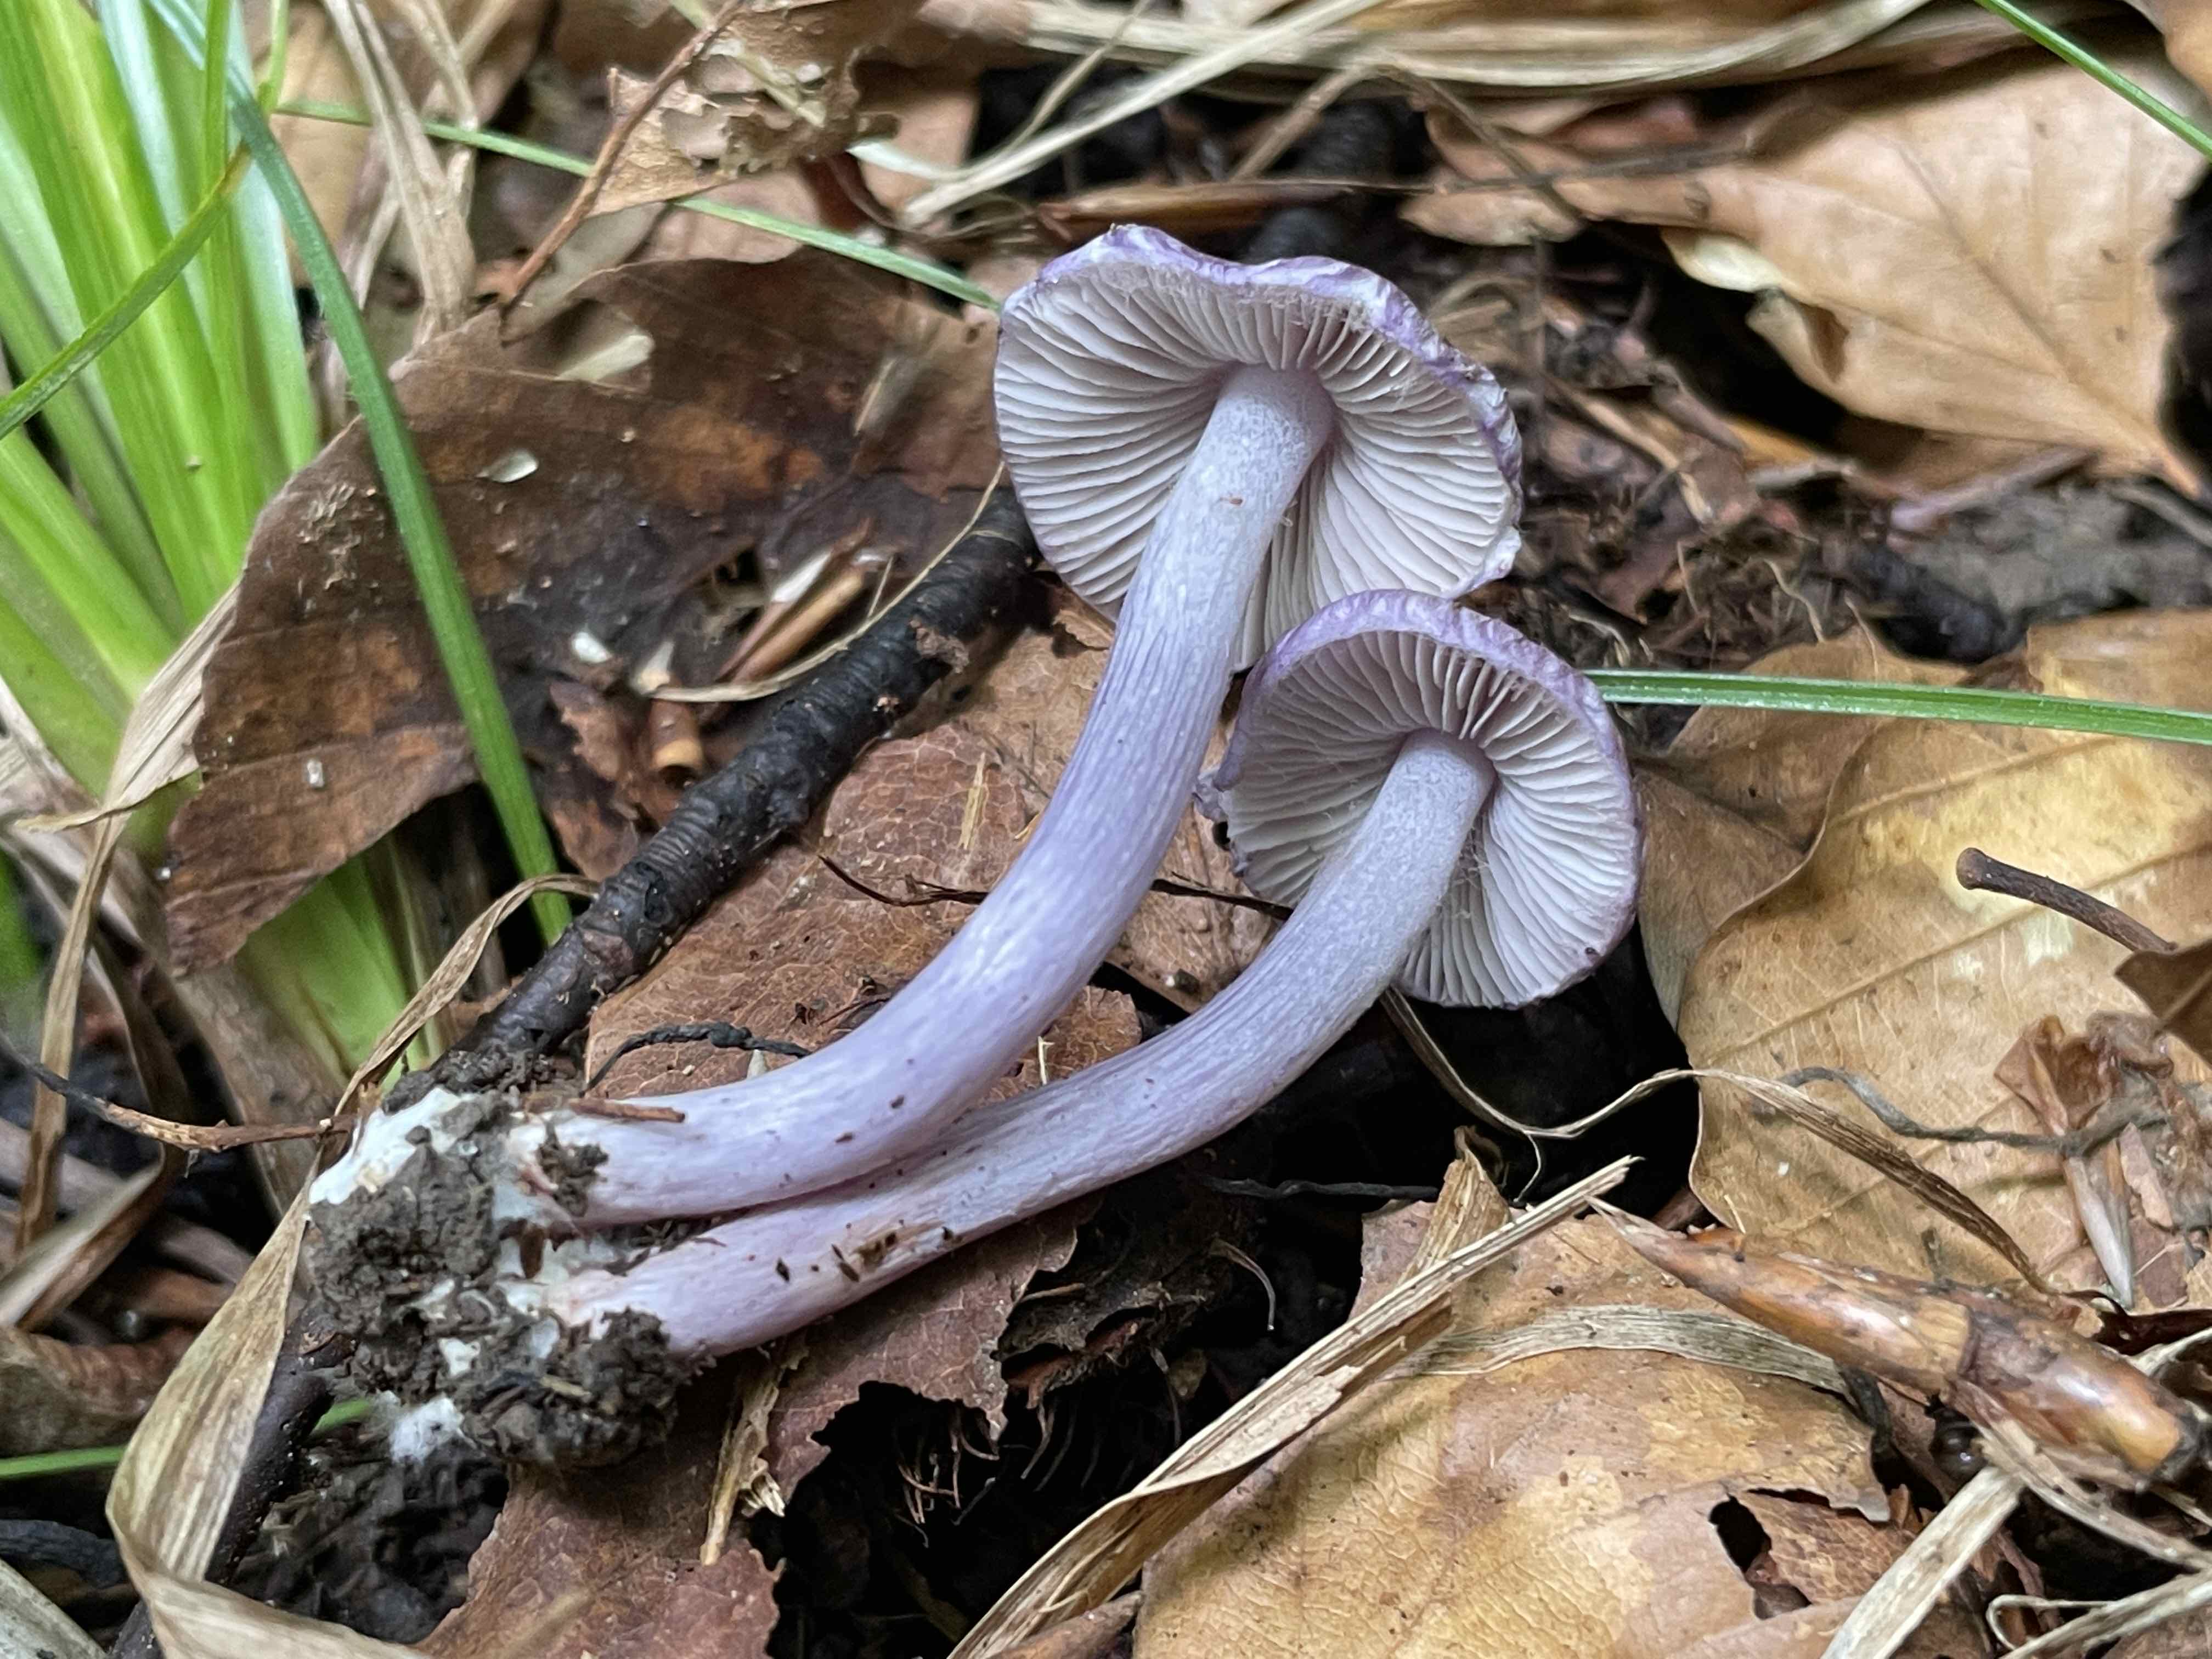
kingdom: Fungi
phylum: Basidiomycota
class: Agaricomycetes
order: Agaricales
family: Inocybaceae
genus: Inocybe
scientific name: Inocybe geophylla
